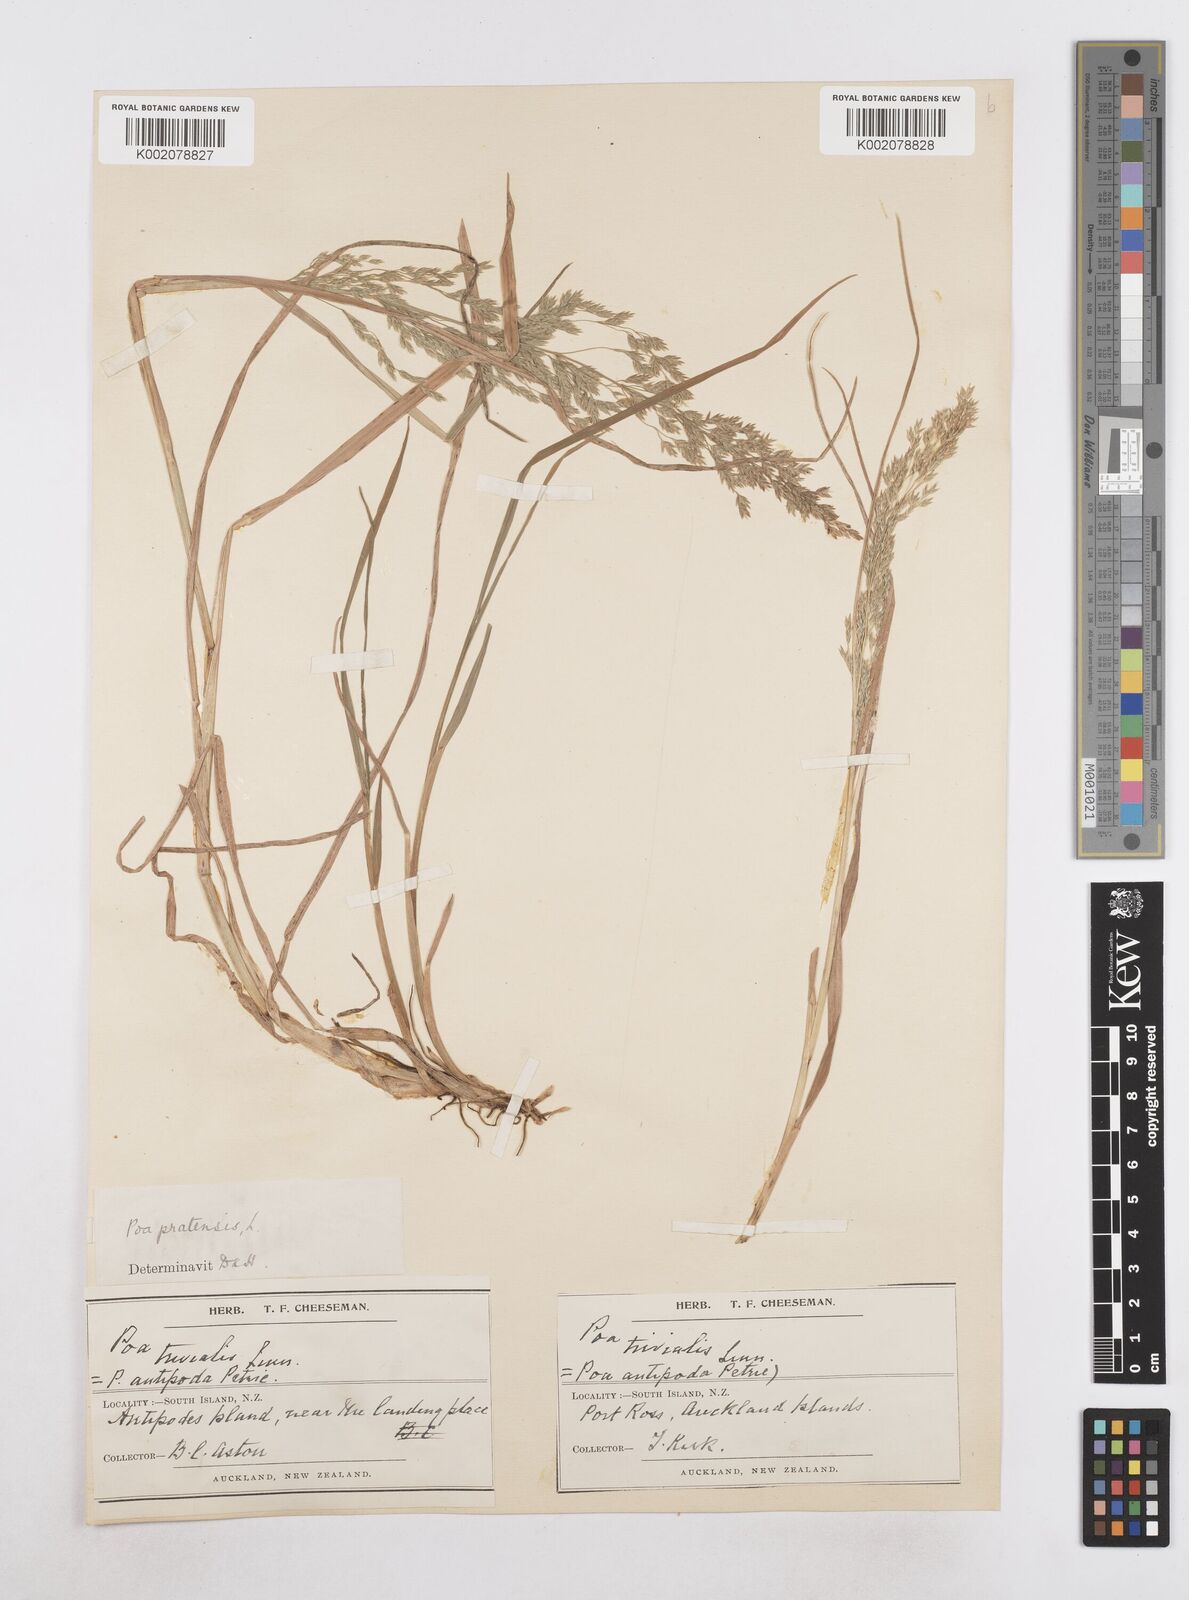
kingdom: Plantae
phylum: Tracheophyta
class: Liliopsida
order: Poales
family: Poaceae
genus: Poa
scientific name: Poa antipoda
